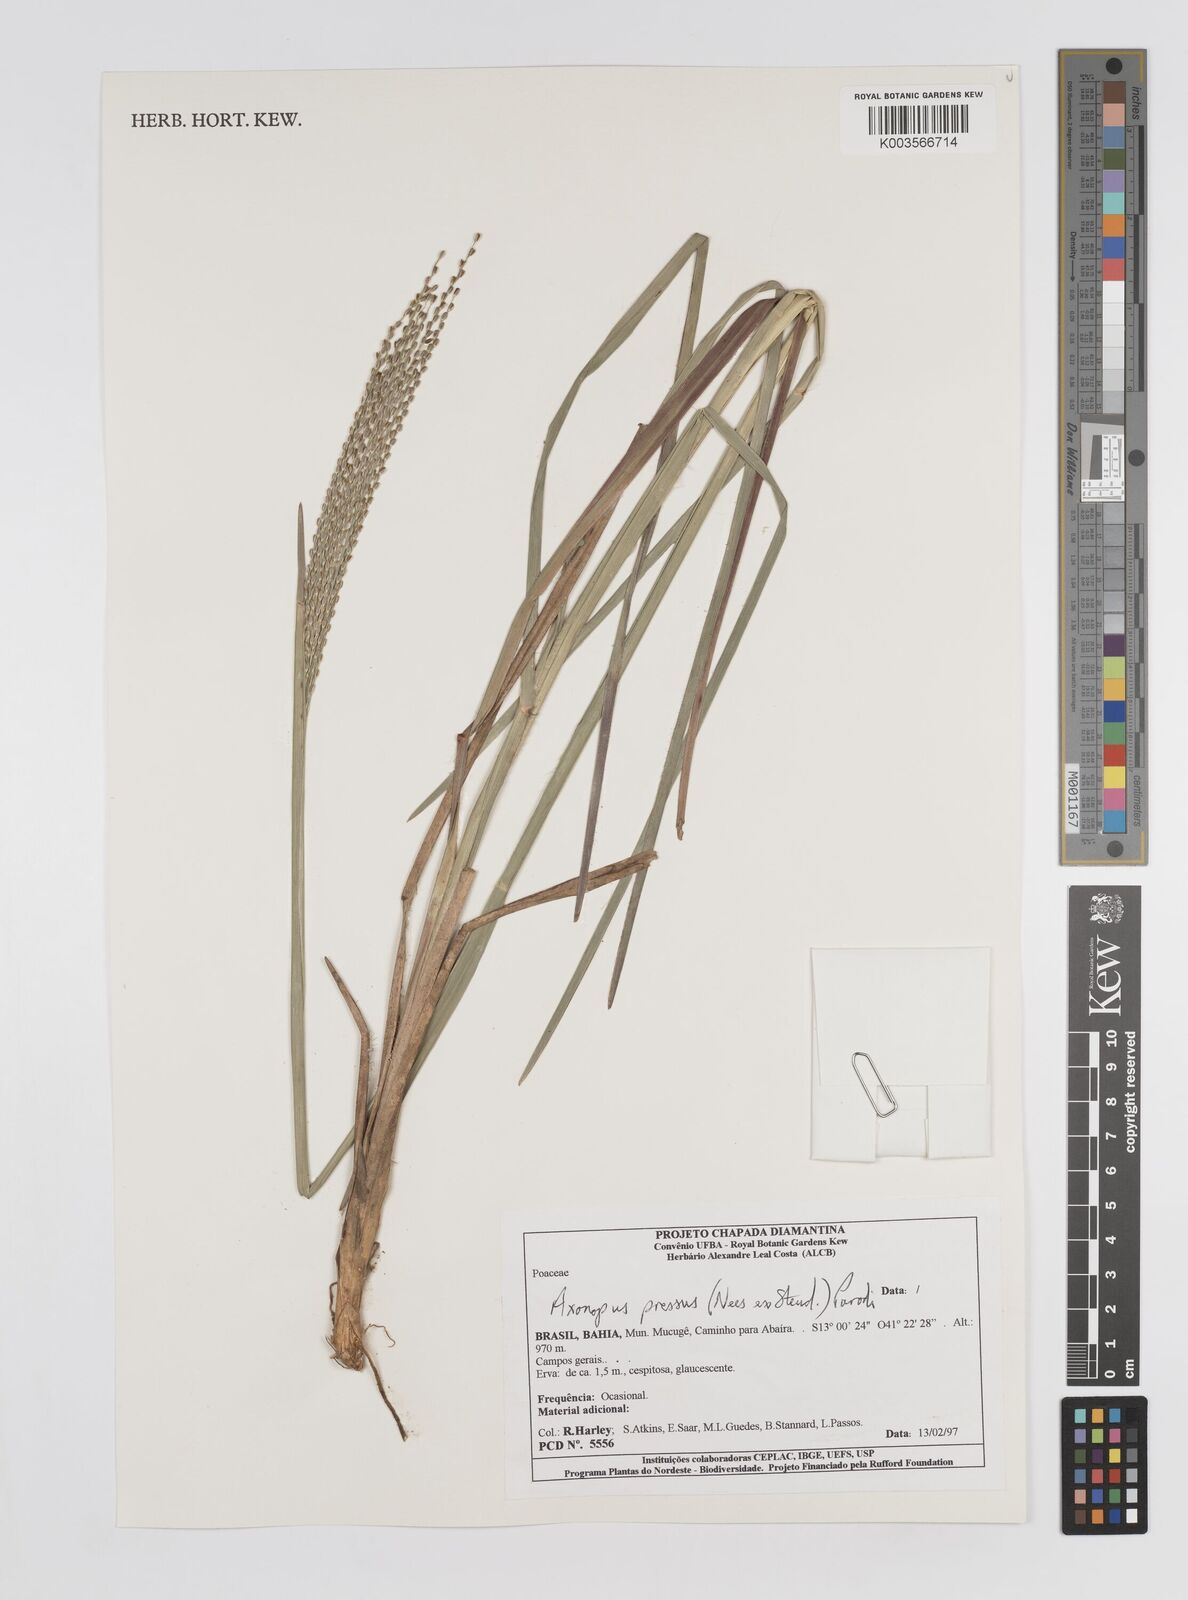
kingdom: Plantae
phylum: Tracheophyta
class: Liliopsida
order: Poales
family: Poaceae
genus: Axonopus
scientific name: Axonopus pressus
